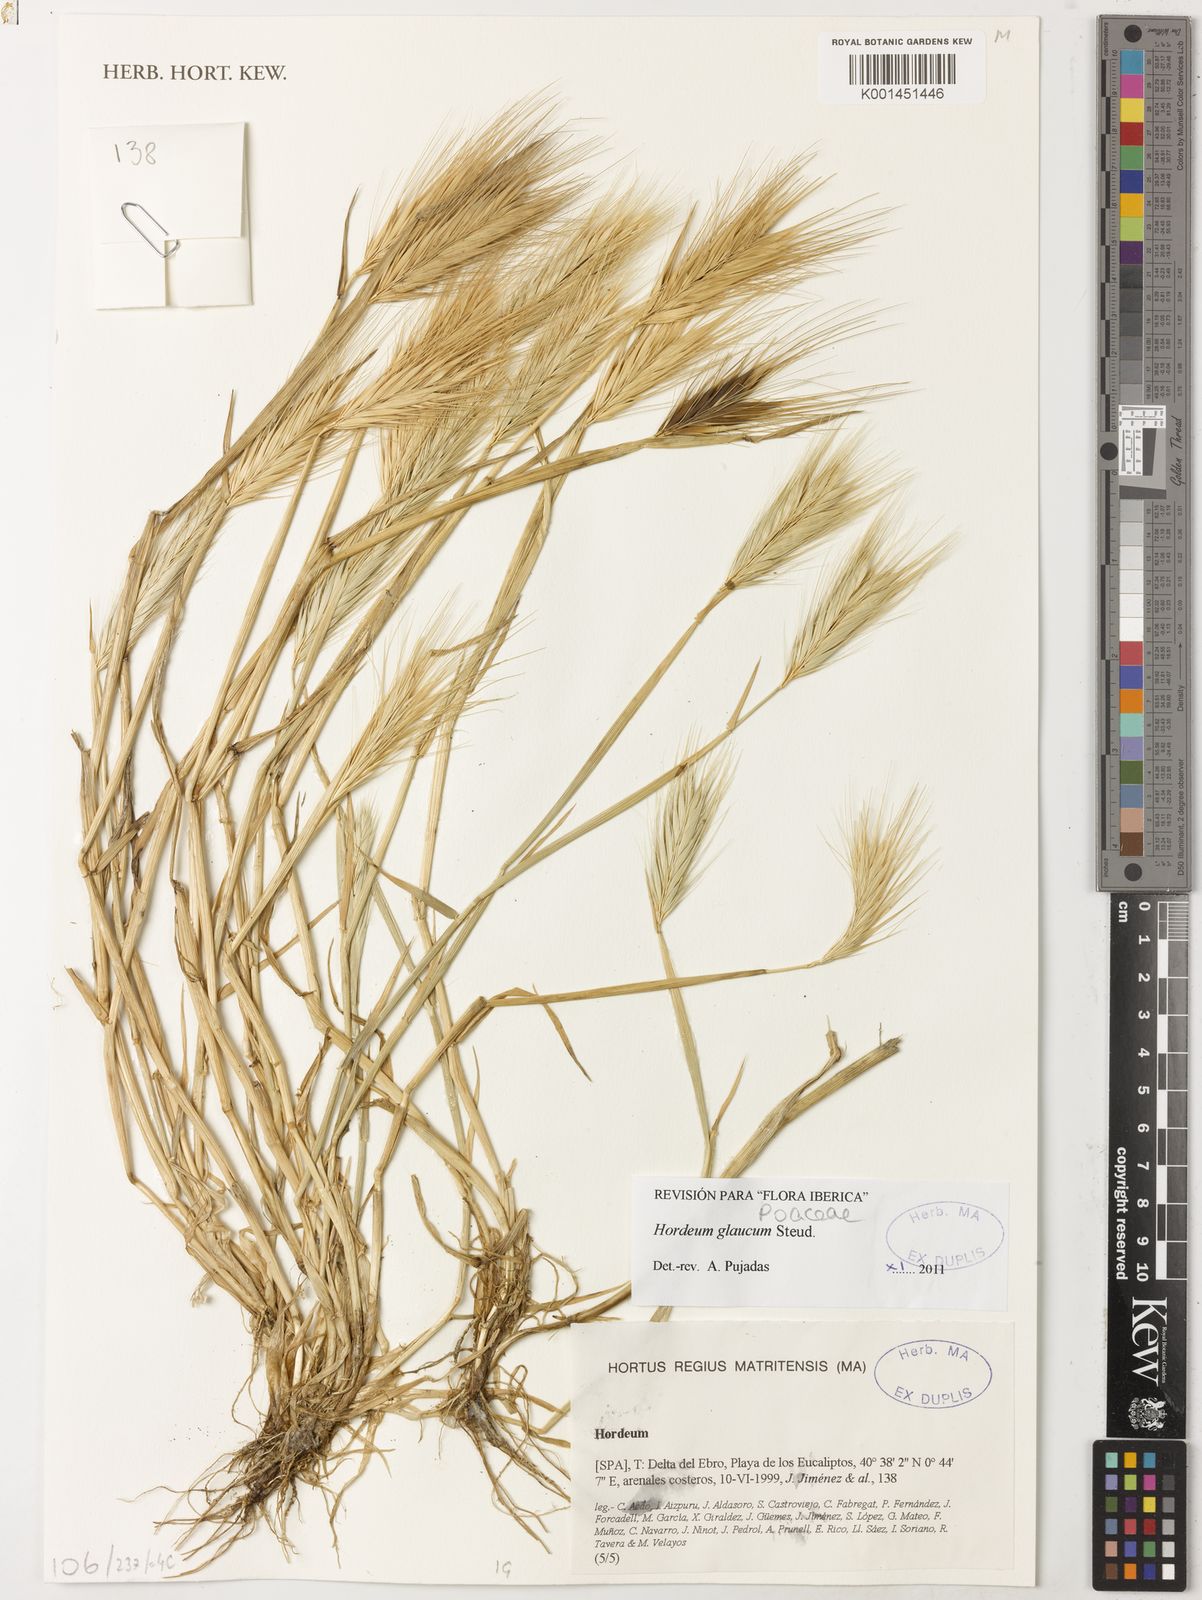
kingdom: Plantae
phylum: Tracheophyta
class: Liliopsida
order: Poales
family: Poaceae
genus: Hordeum
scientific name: Hordeum murinum
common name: Wall barley
